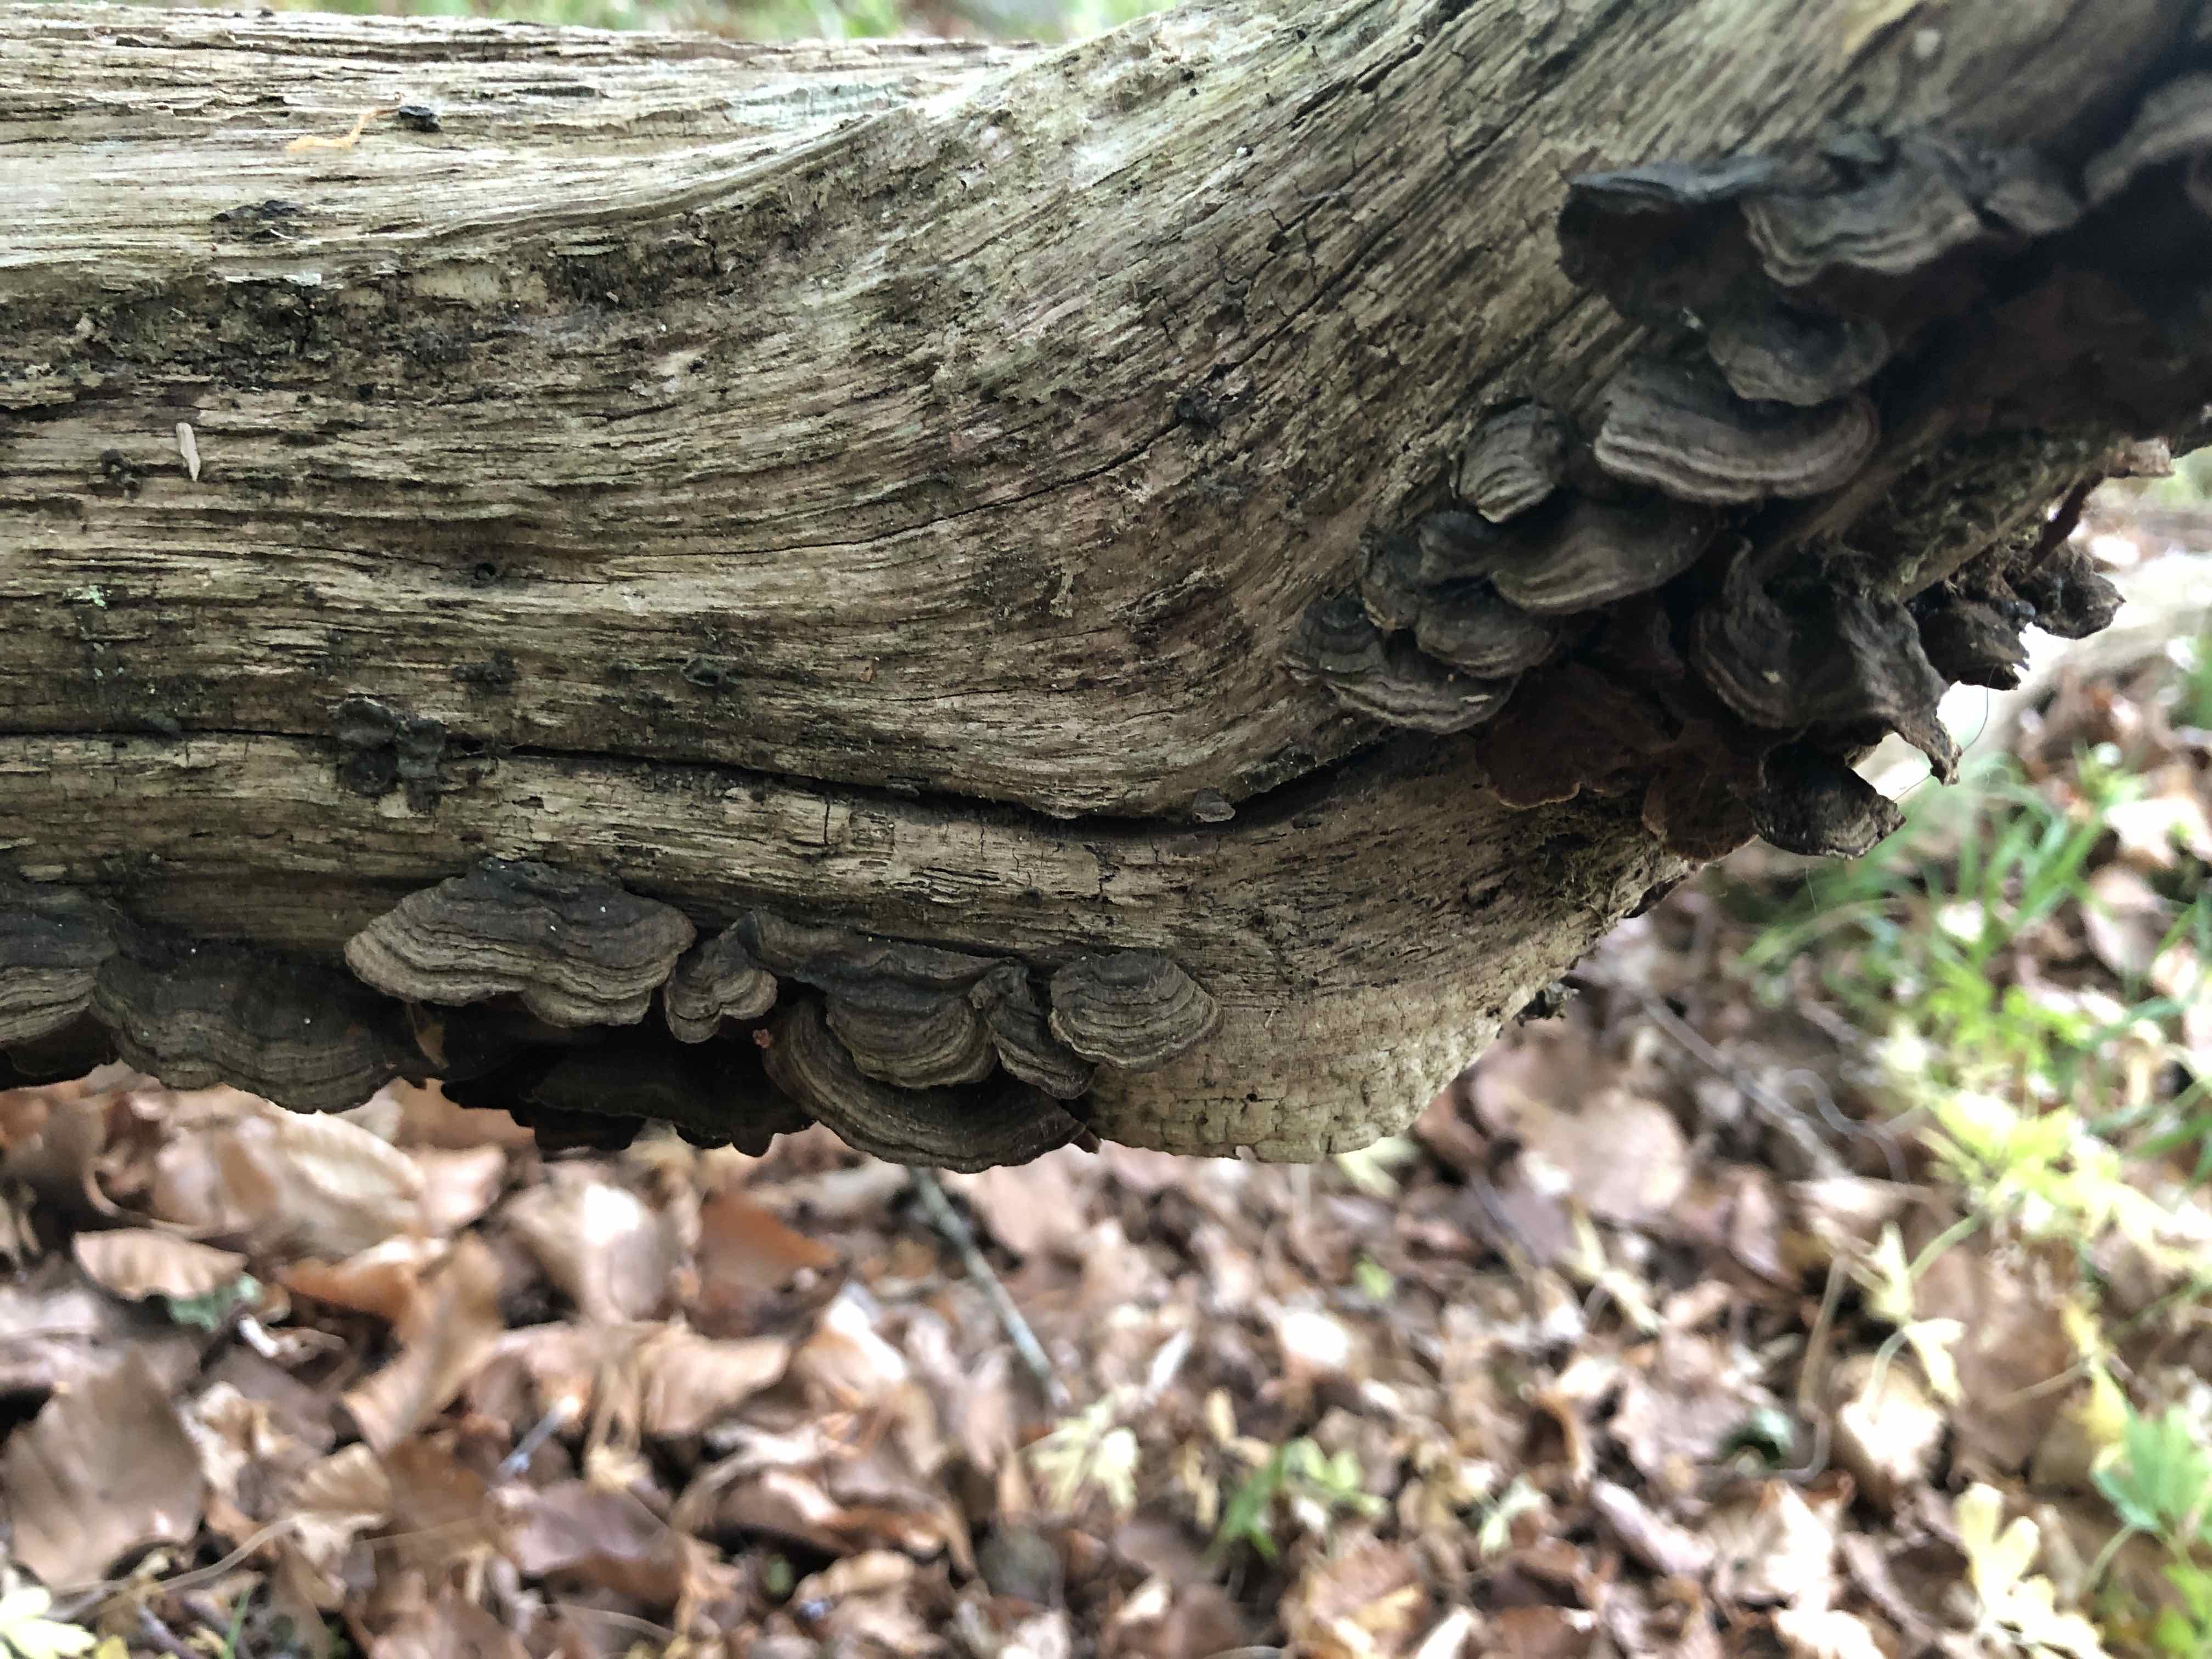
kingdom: Fungi
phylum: Basidiomycota
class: Agaricomycetes
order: Hymenochaetales
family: Hymenochaetaceae
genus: Hymenochaete
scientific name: Hymenochaete rubiginosa
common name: stiv ruslædersvamp
